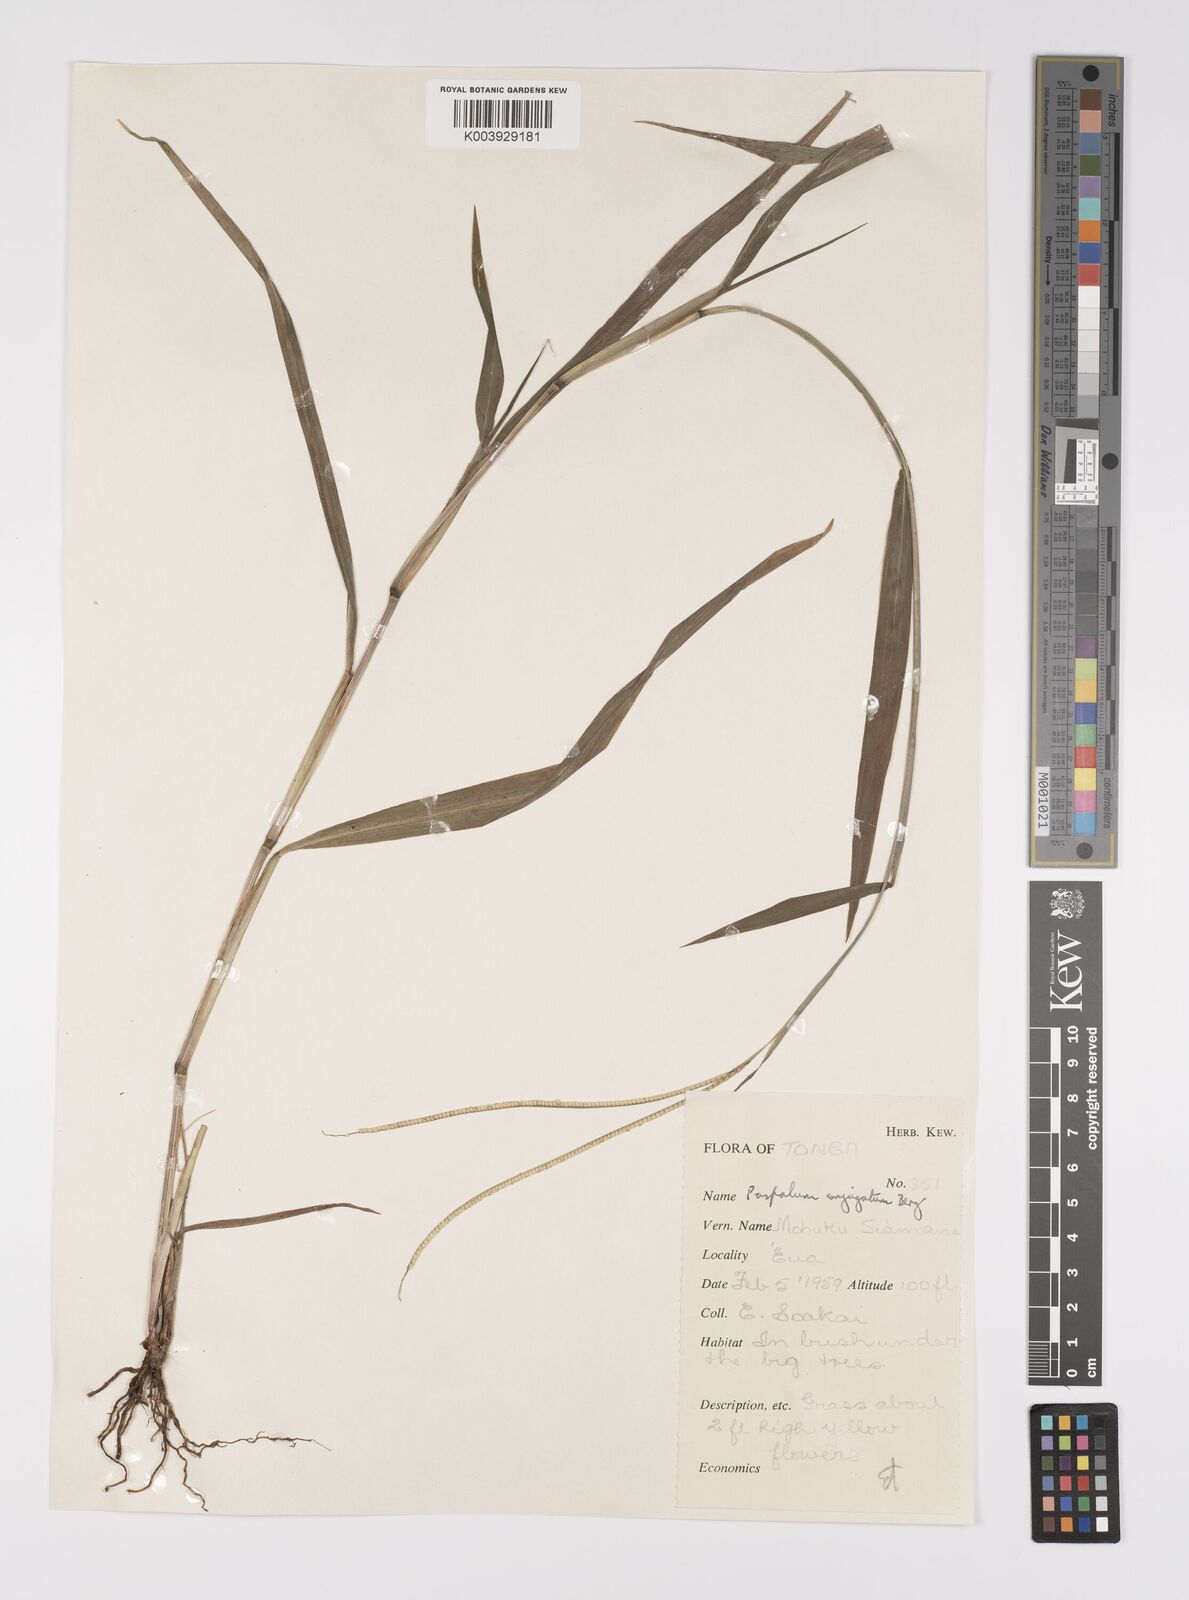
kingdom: Plantae
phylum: Tracheophyta
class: Liliopsida
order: Poales
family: Poaceae
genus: Paspalum
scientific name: Paspalum conjugatum
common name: Hilograss
